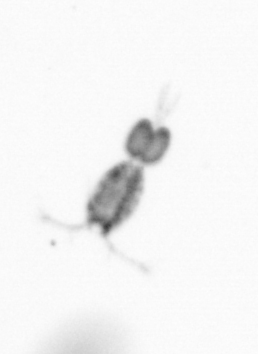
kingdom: Animalia
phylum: Arthropoda
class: Copepoda
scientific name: Copepoda
